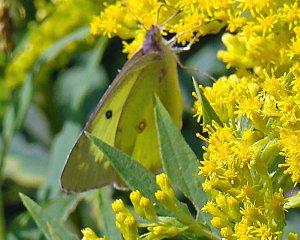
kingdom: Animalia
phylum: Arthropoda
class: Insecta
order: Lepidoptera
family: Pieridae
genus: Colias
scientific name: Colias eurytheme
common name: Orange Sulphur
